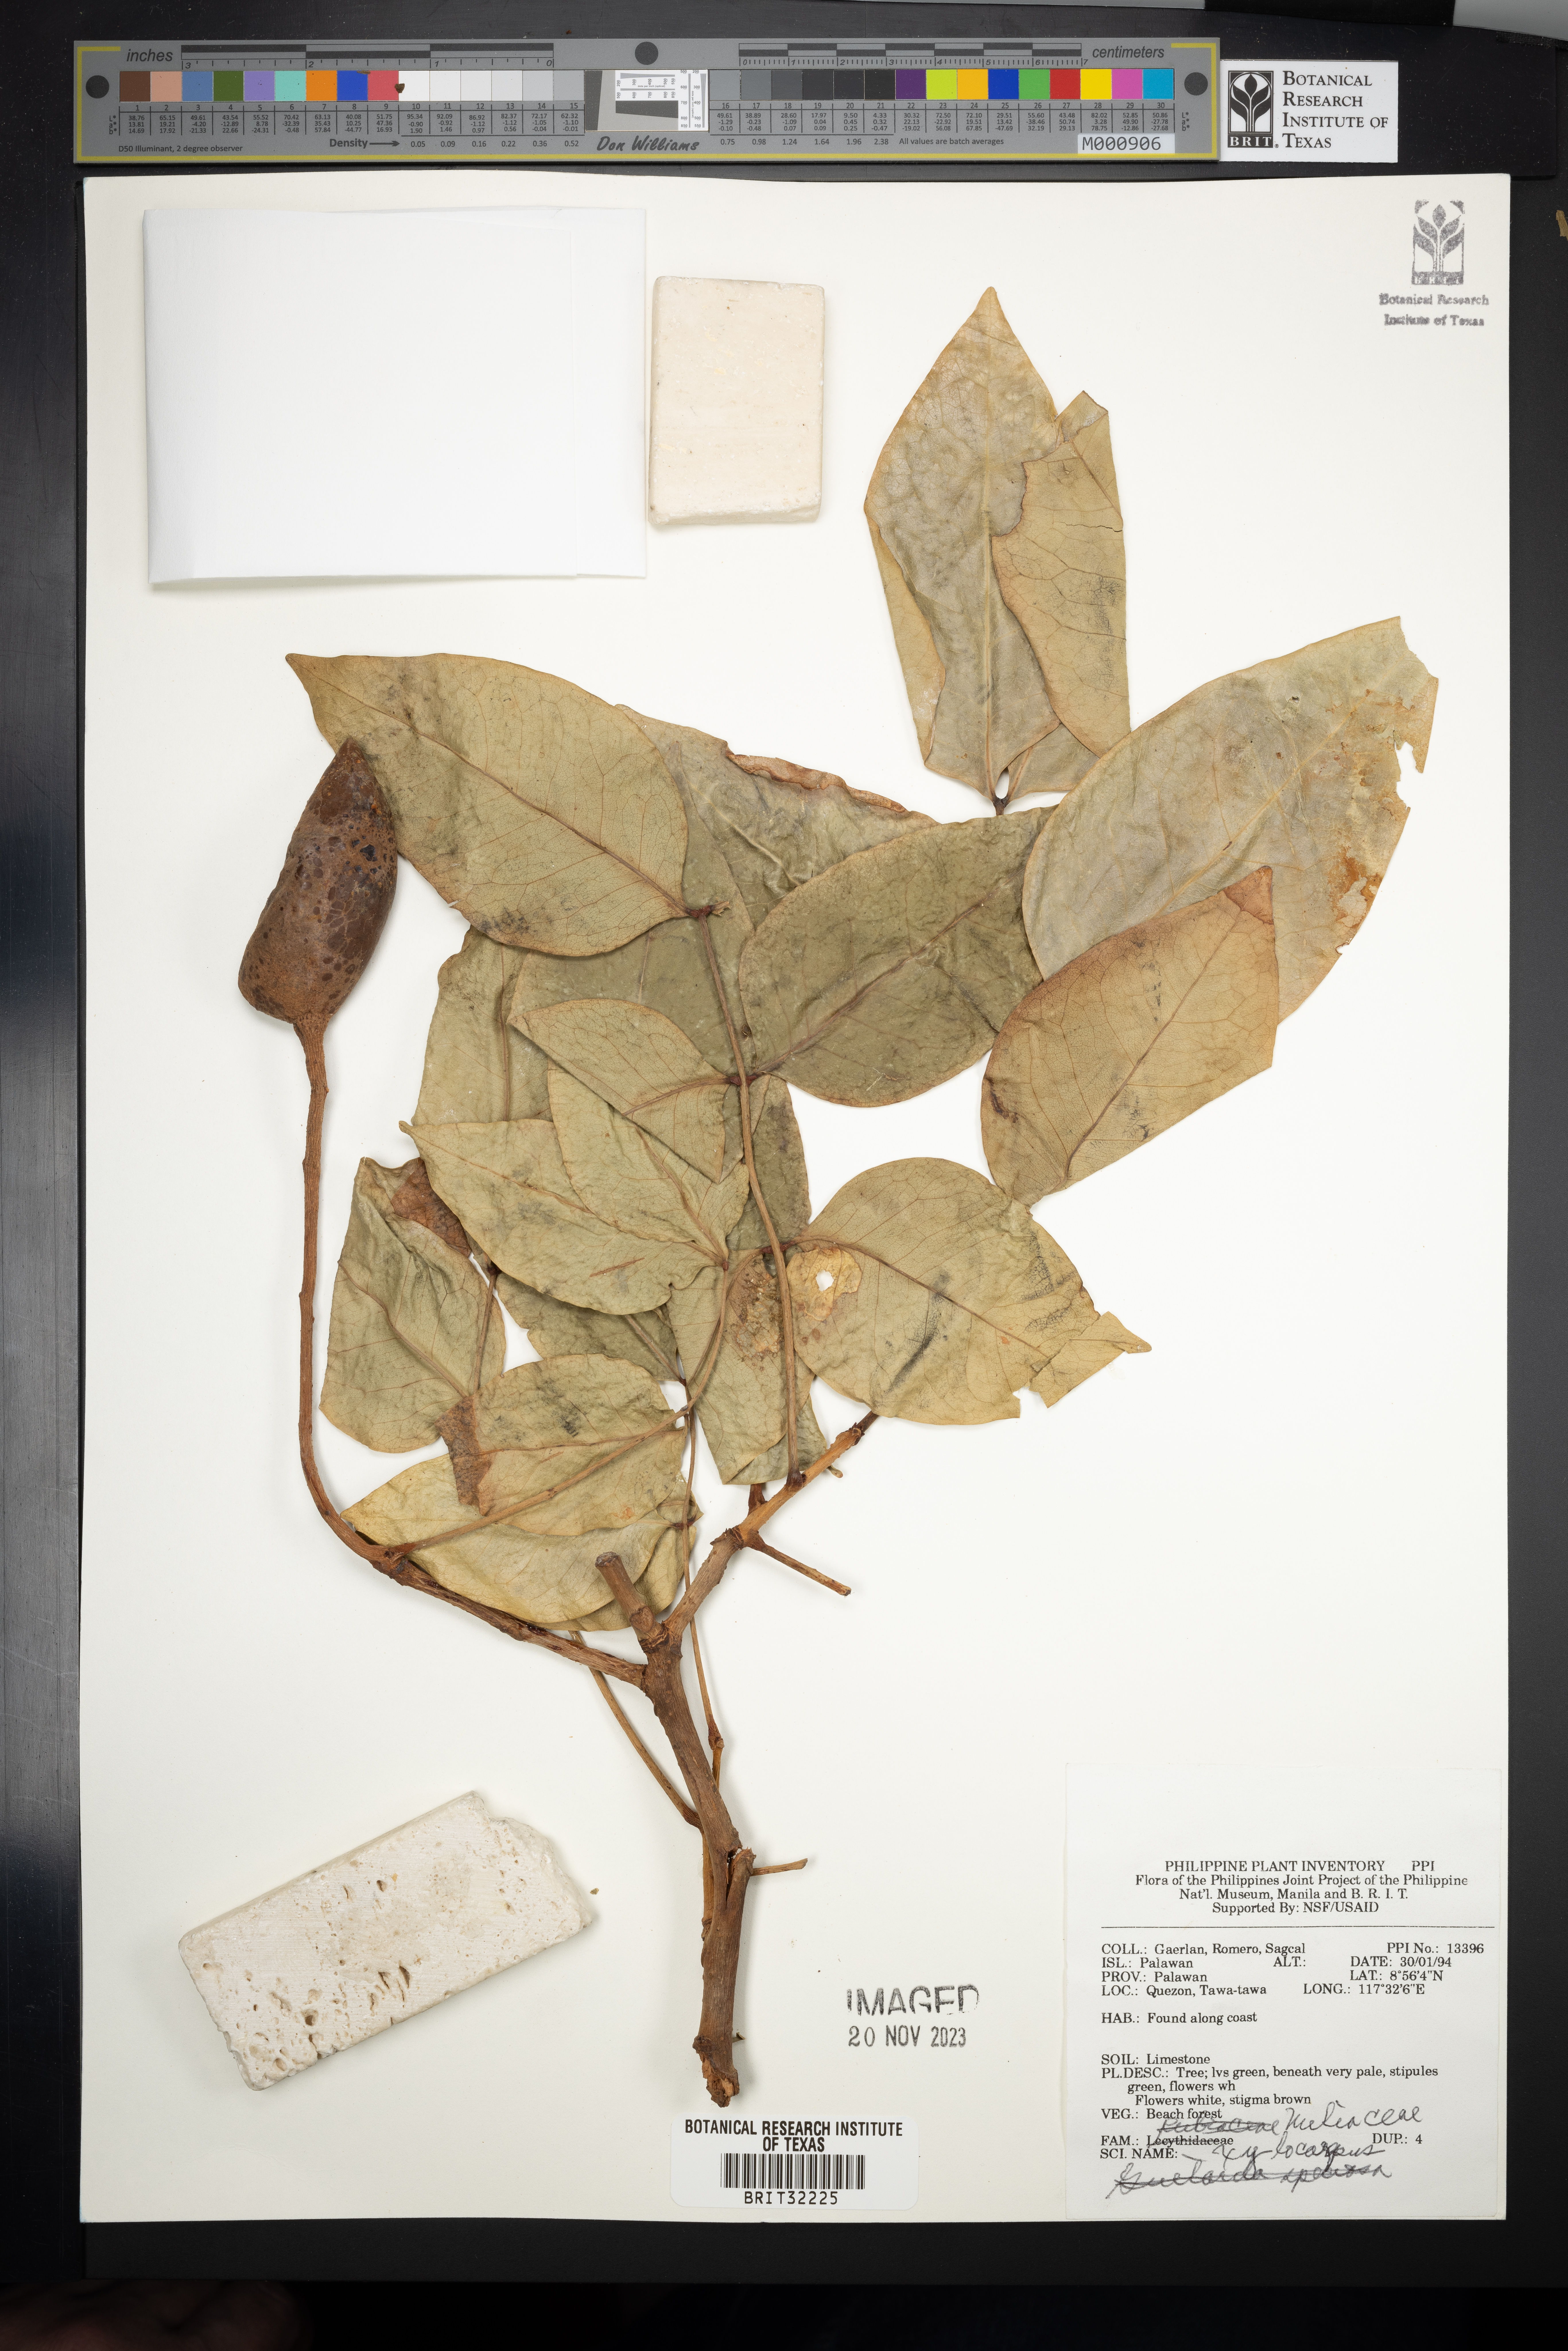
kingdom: Plantae
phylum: Tracheophyta
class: Magnoliopsida
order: Sapindales
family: Meliaceae
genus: Xylocarpus
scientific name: Xylocarpus
